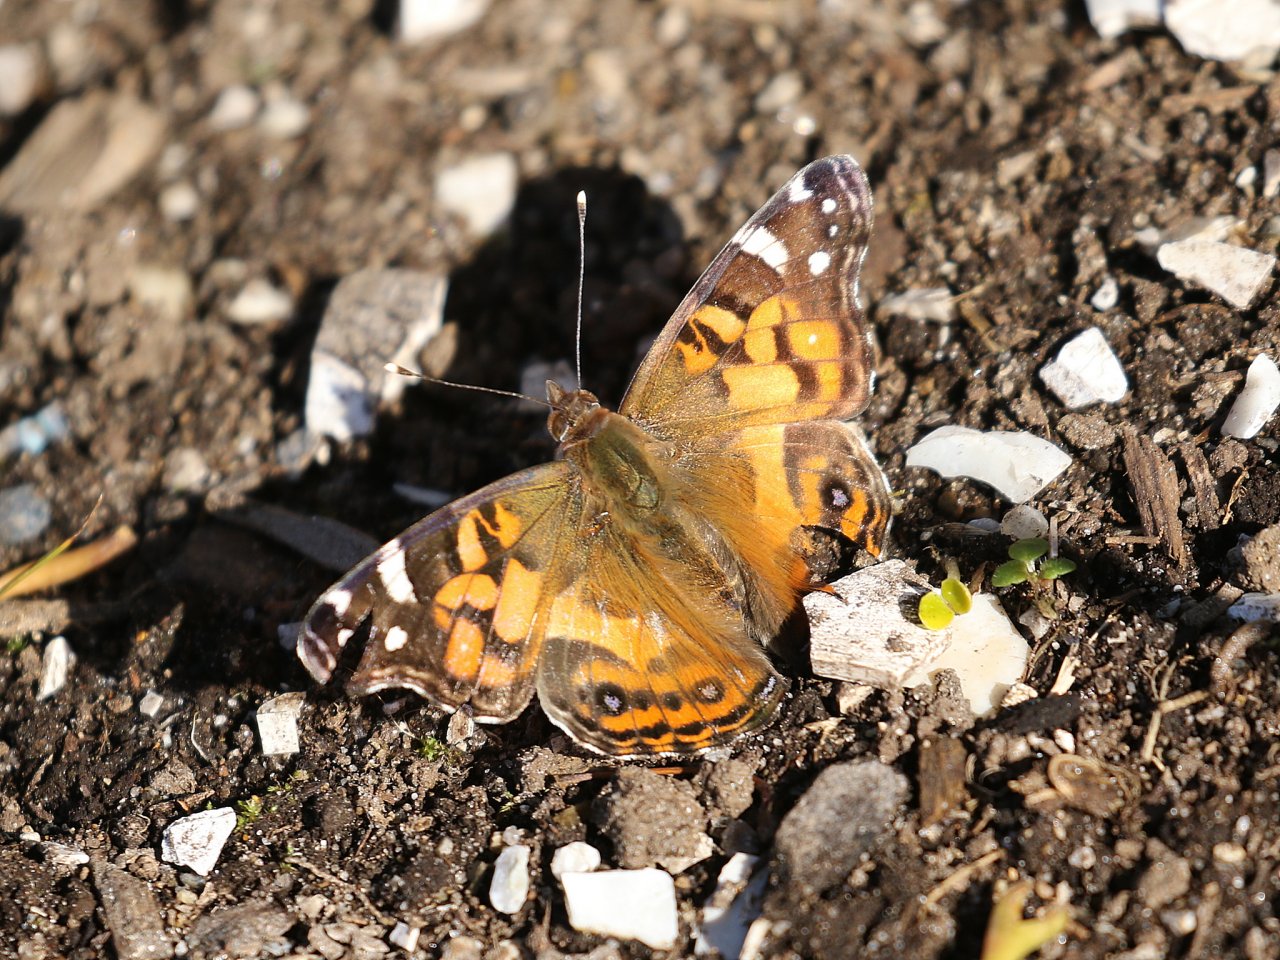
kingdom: Animalia
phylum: Arthropoda
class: Insecta
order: Lepidoptera
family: Nymphalidae
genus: Vanessa
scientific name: Vanessa virginiensis
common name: American Lady
